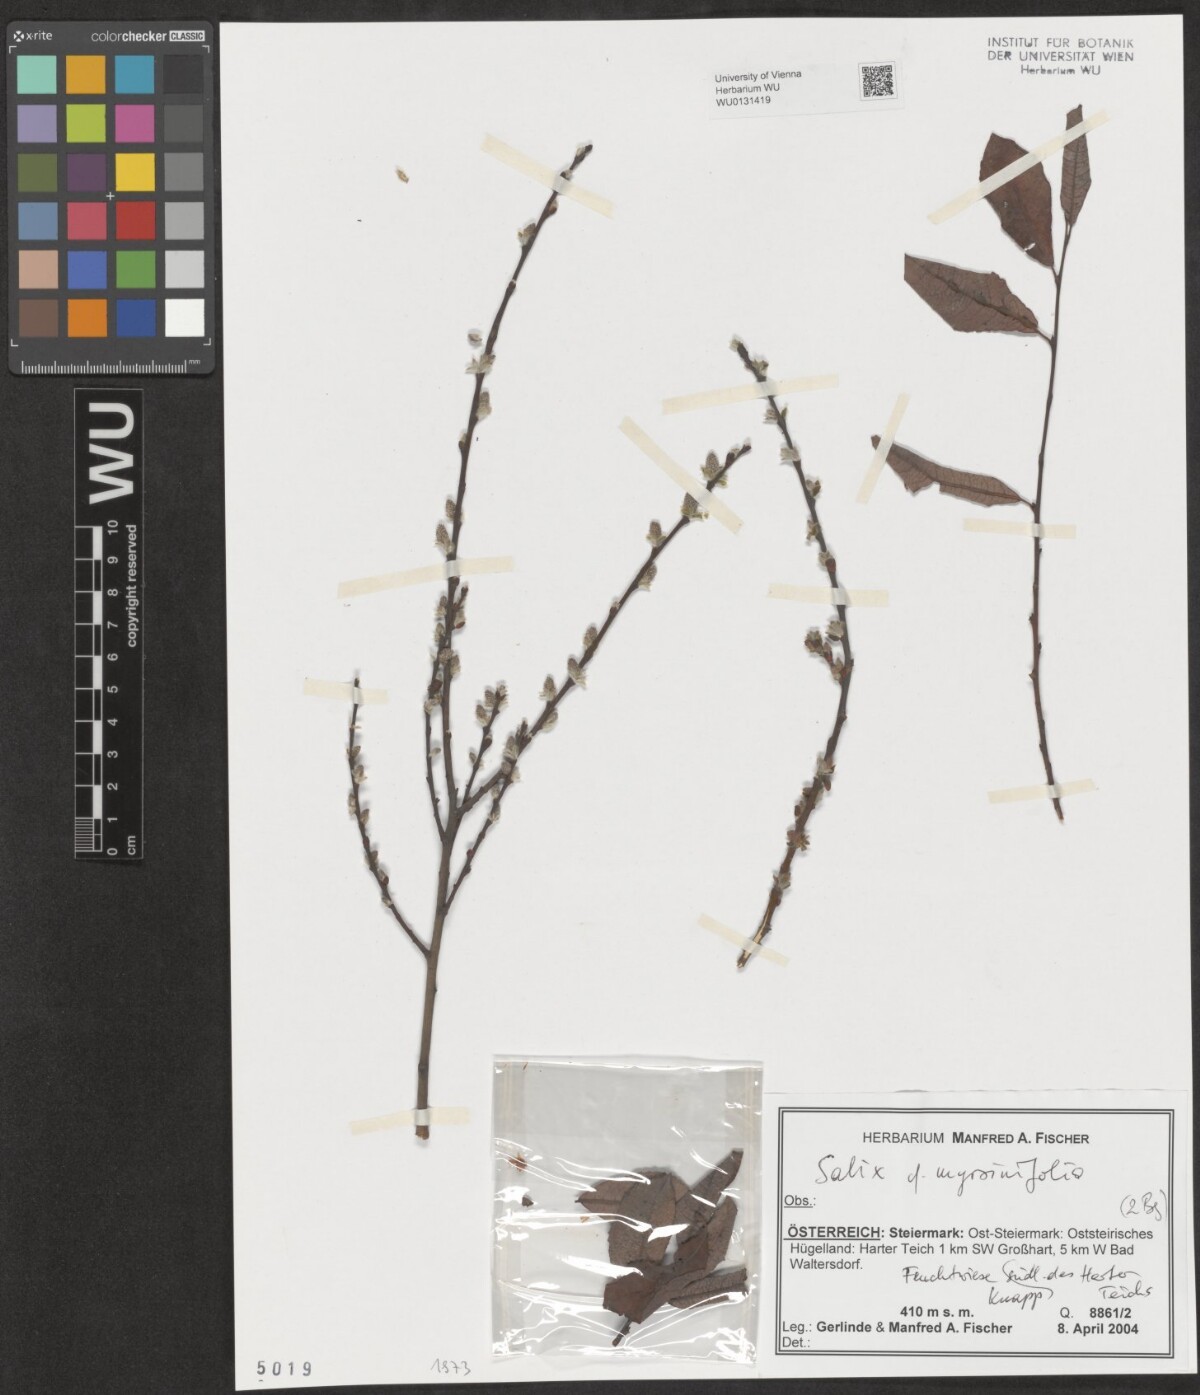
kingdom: Plantae
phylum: Tracheophyta
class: Magnoliopsida
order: Malpighiales
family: Salicaceae
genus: Salix
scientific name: Salix myrsinifolia
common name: Dark-leaved willow
